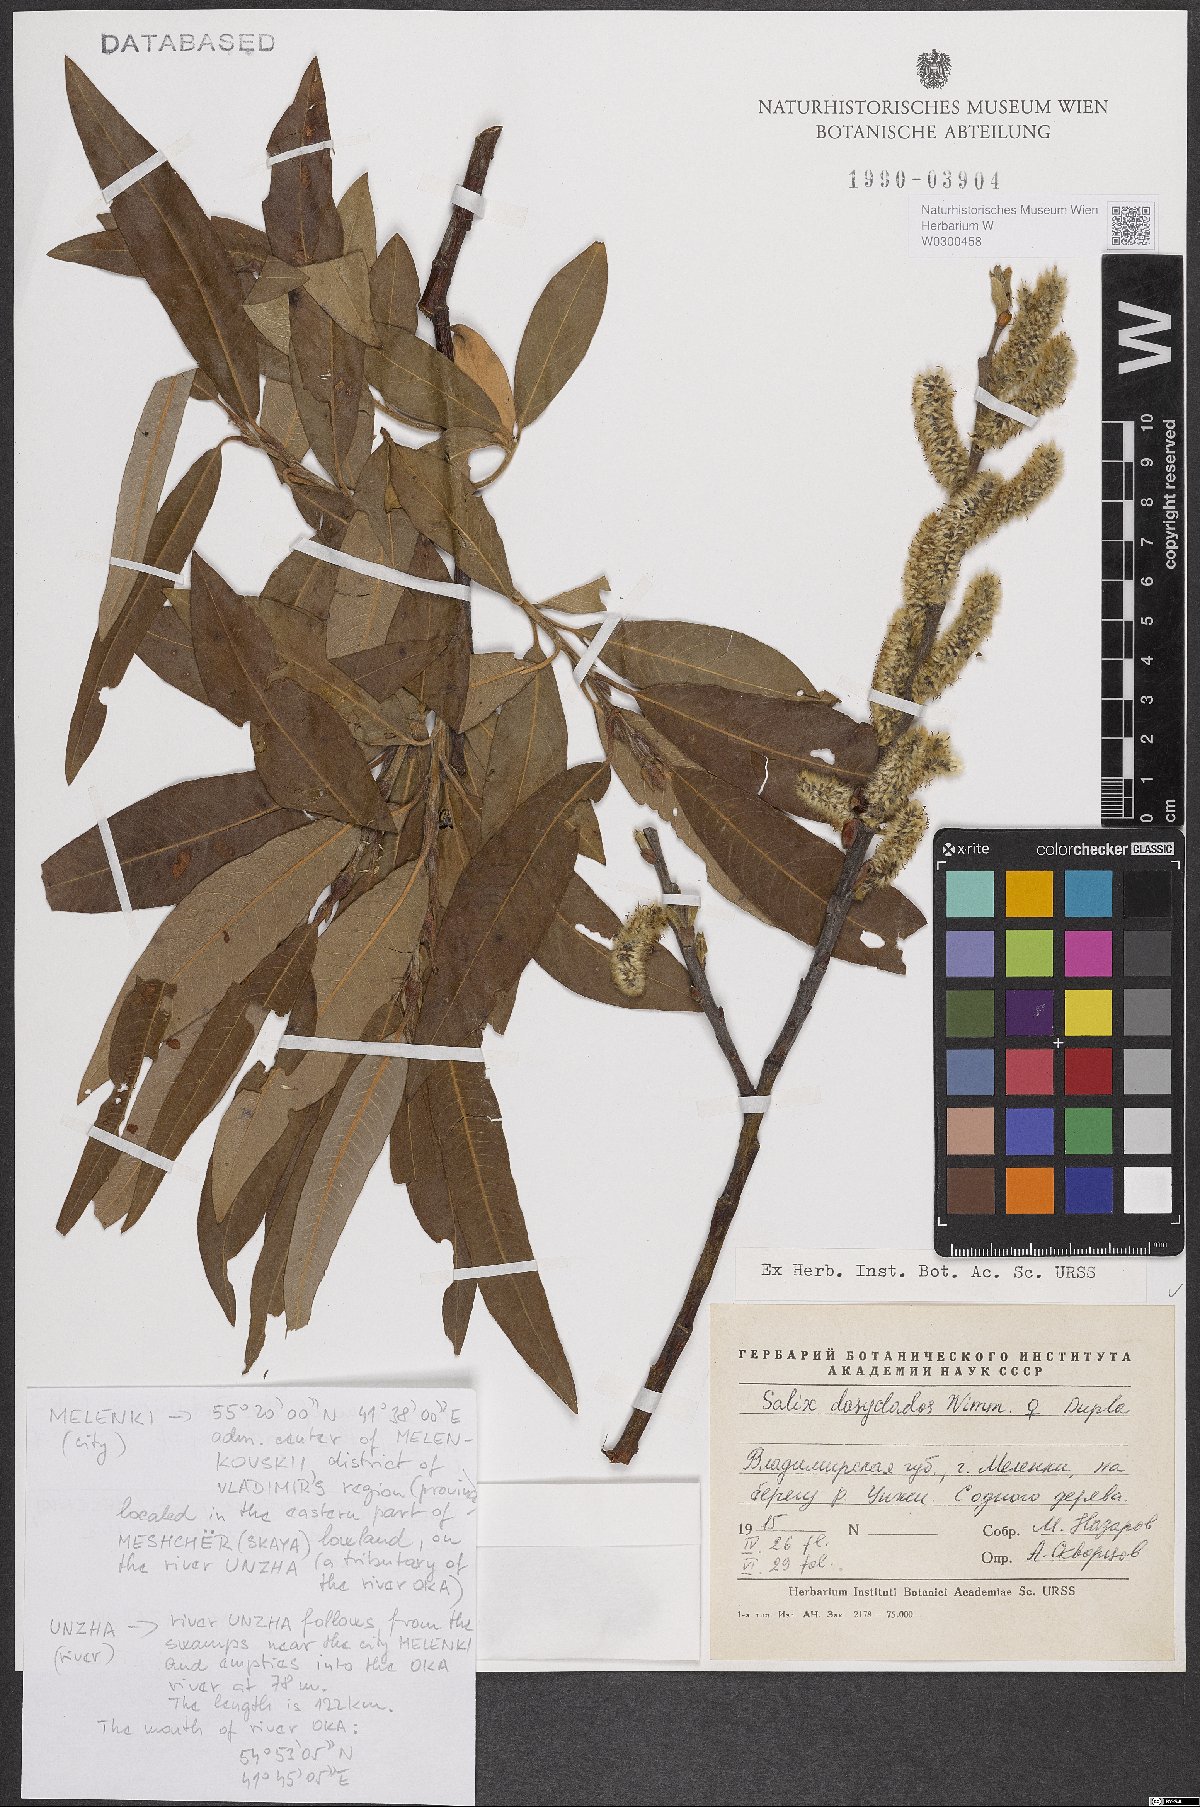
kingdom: Plantae
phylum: Tracheophyta
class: Magnoliopsida
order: Malpighiales
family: Salicaceae
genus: Salix
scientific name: Salix gmelinii
